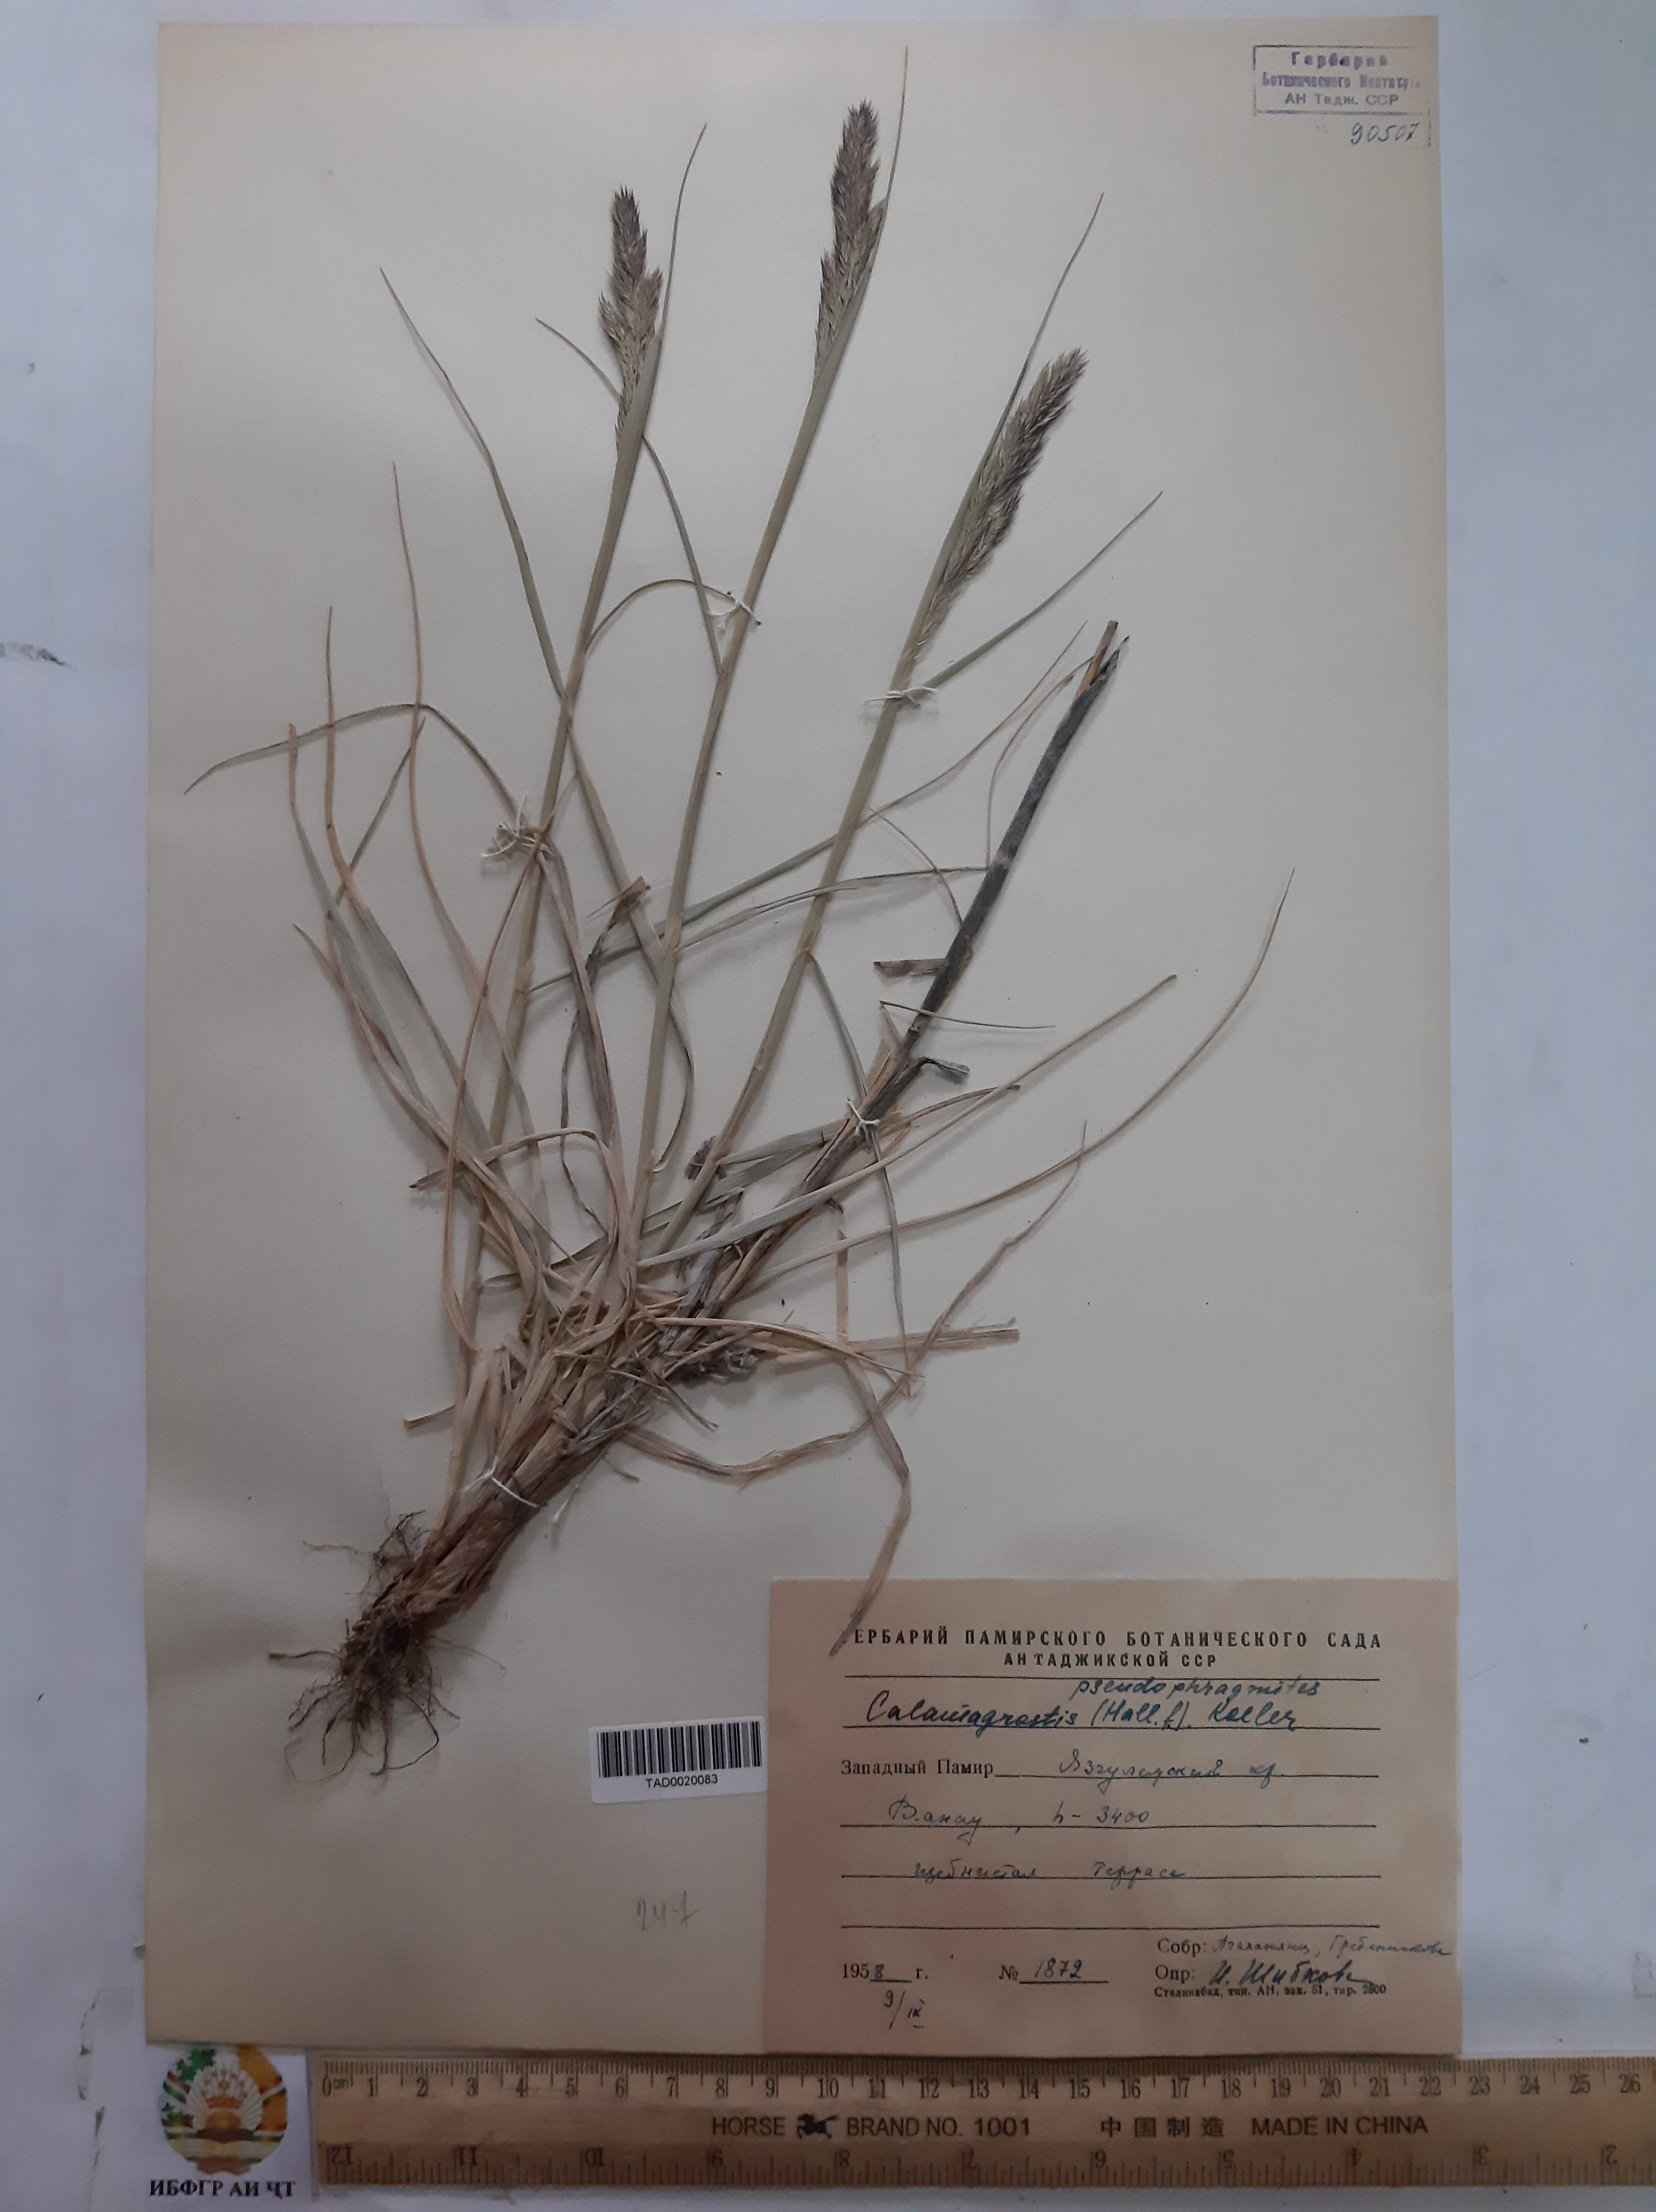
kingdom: Plantae
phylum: Tracheophyta
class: Liliopsida
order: Poales
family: Poaceae
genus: Calamagrostis
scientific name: Calamagrostis pseudophragmites
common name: Coastal small-reed
